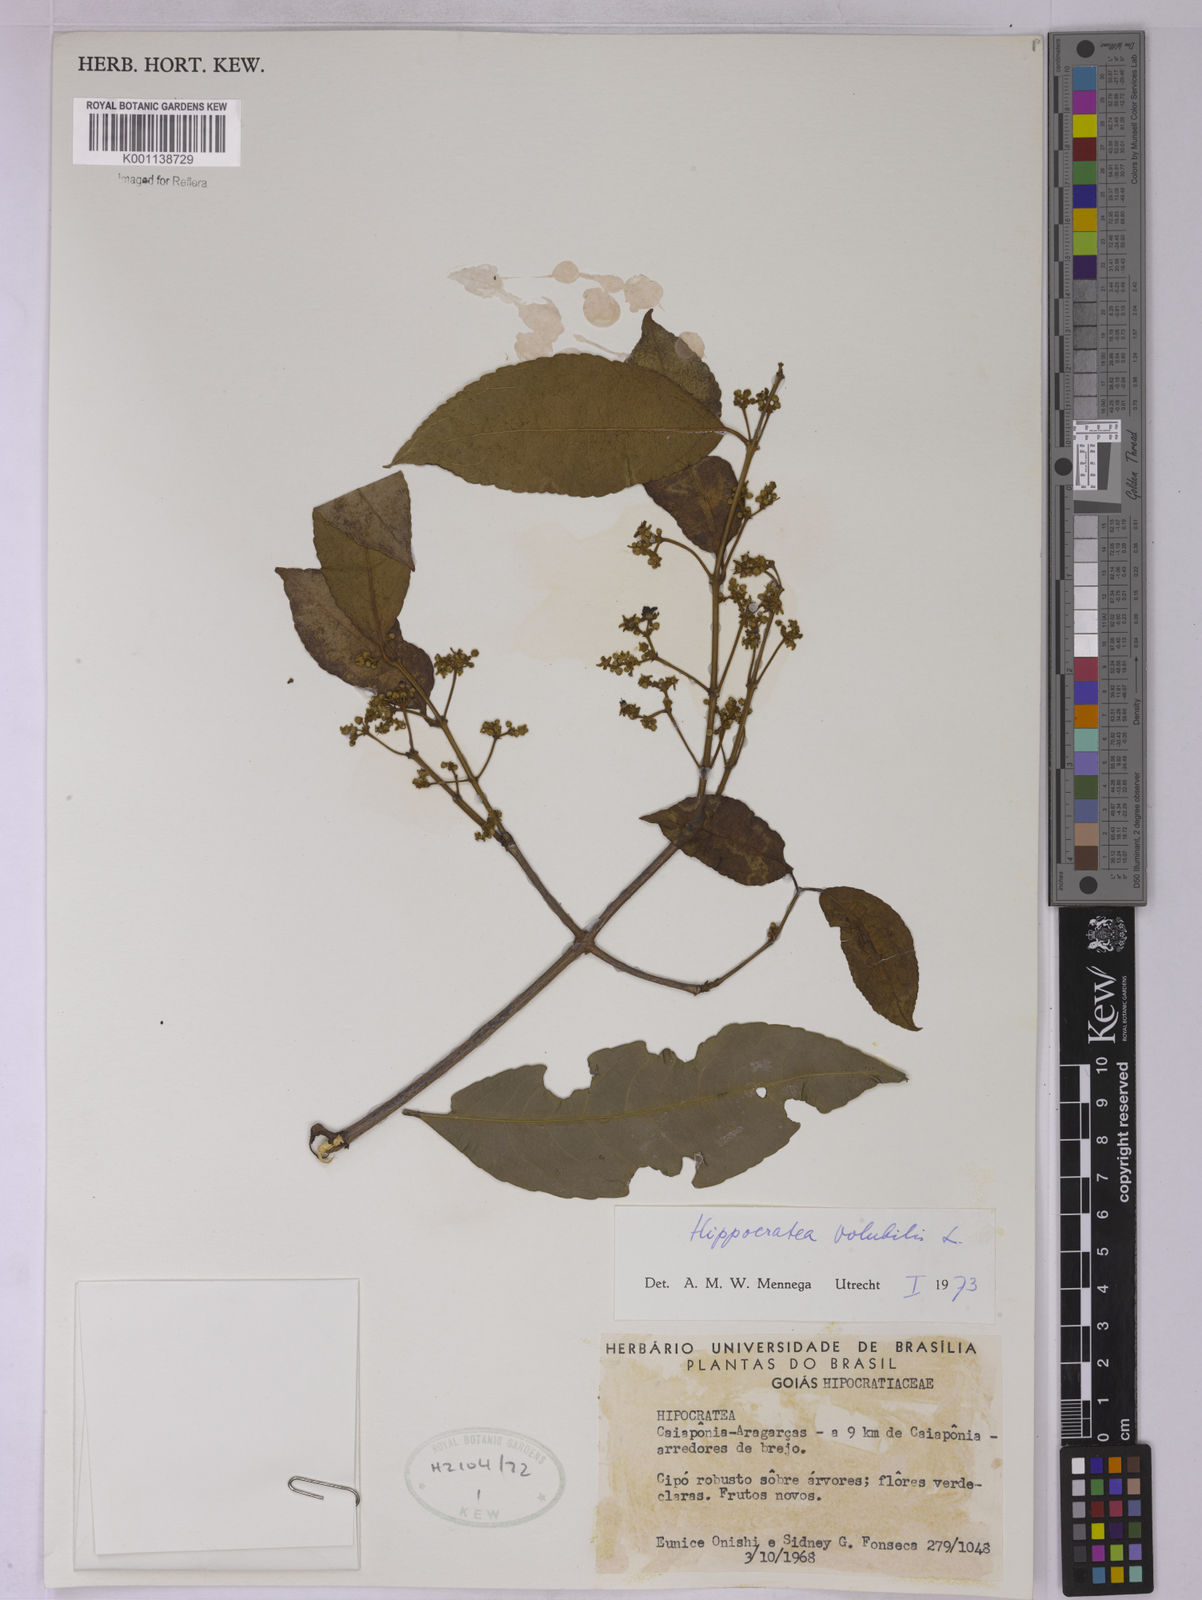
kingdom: Plantae
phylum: Tracheophyta
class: Magnoliopsida
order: Celastrales
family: Celastraceae
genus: Hippocratea
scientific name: Hippocratea volubilis
